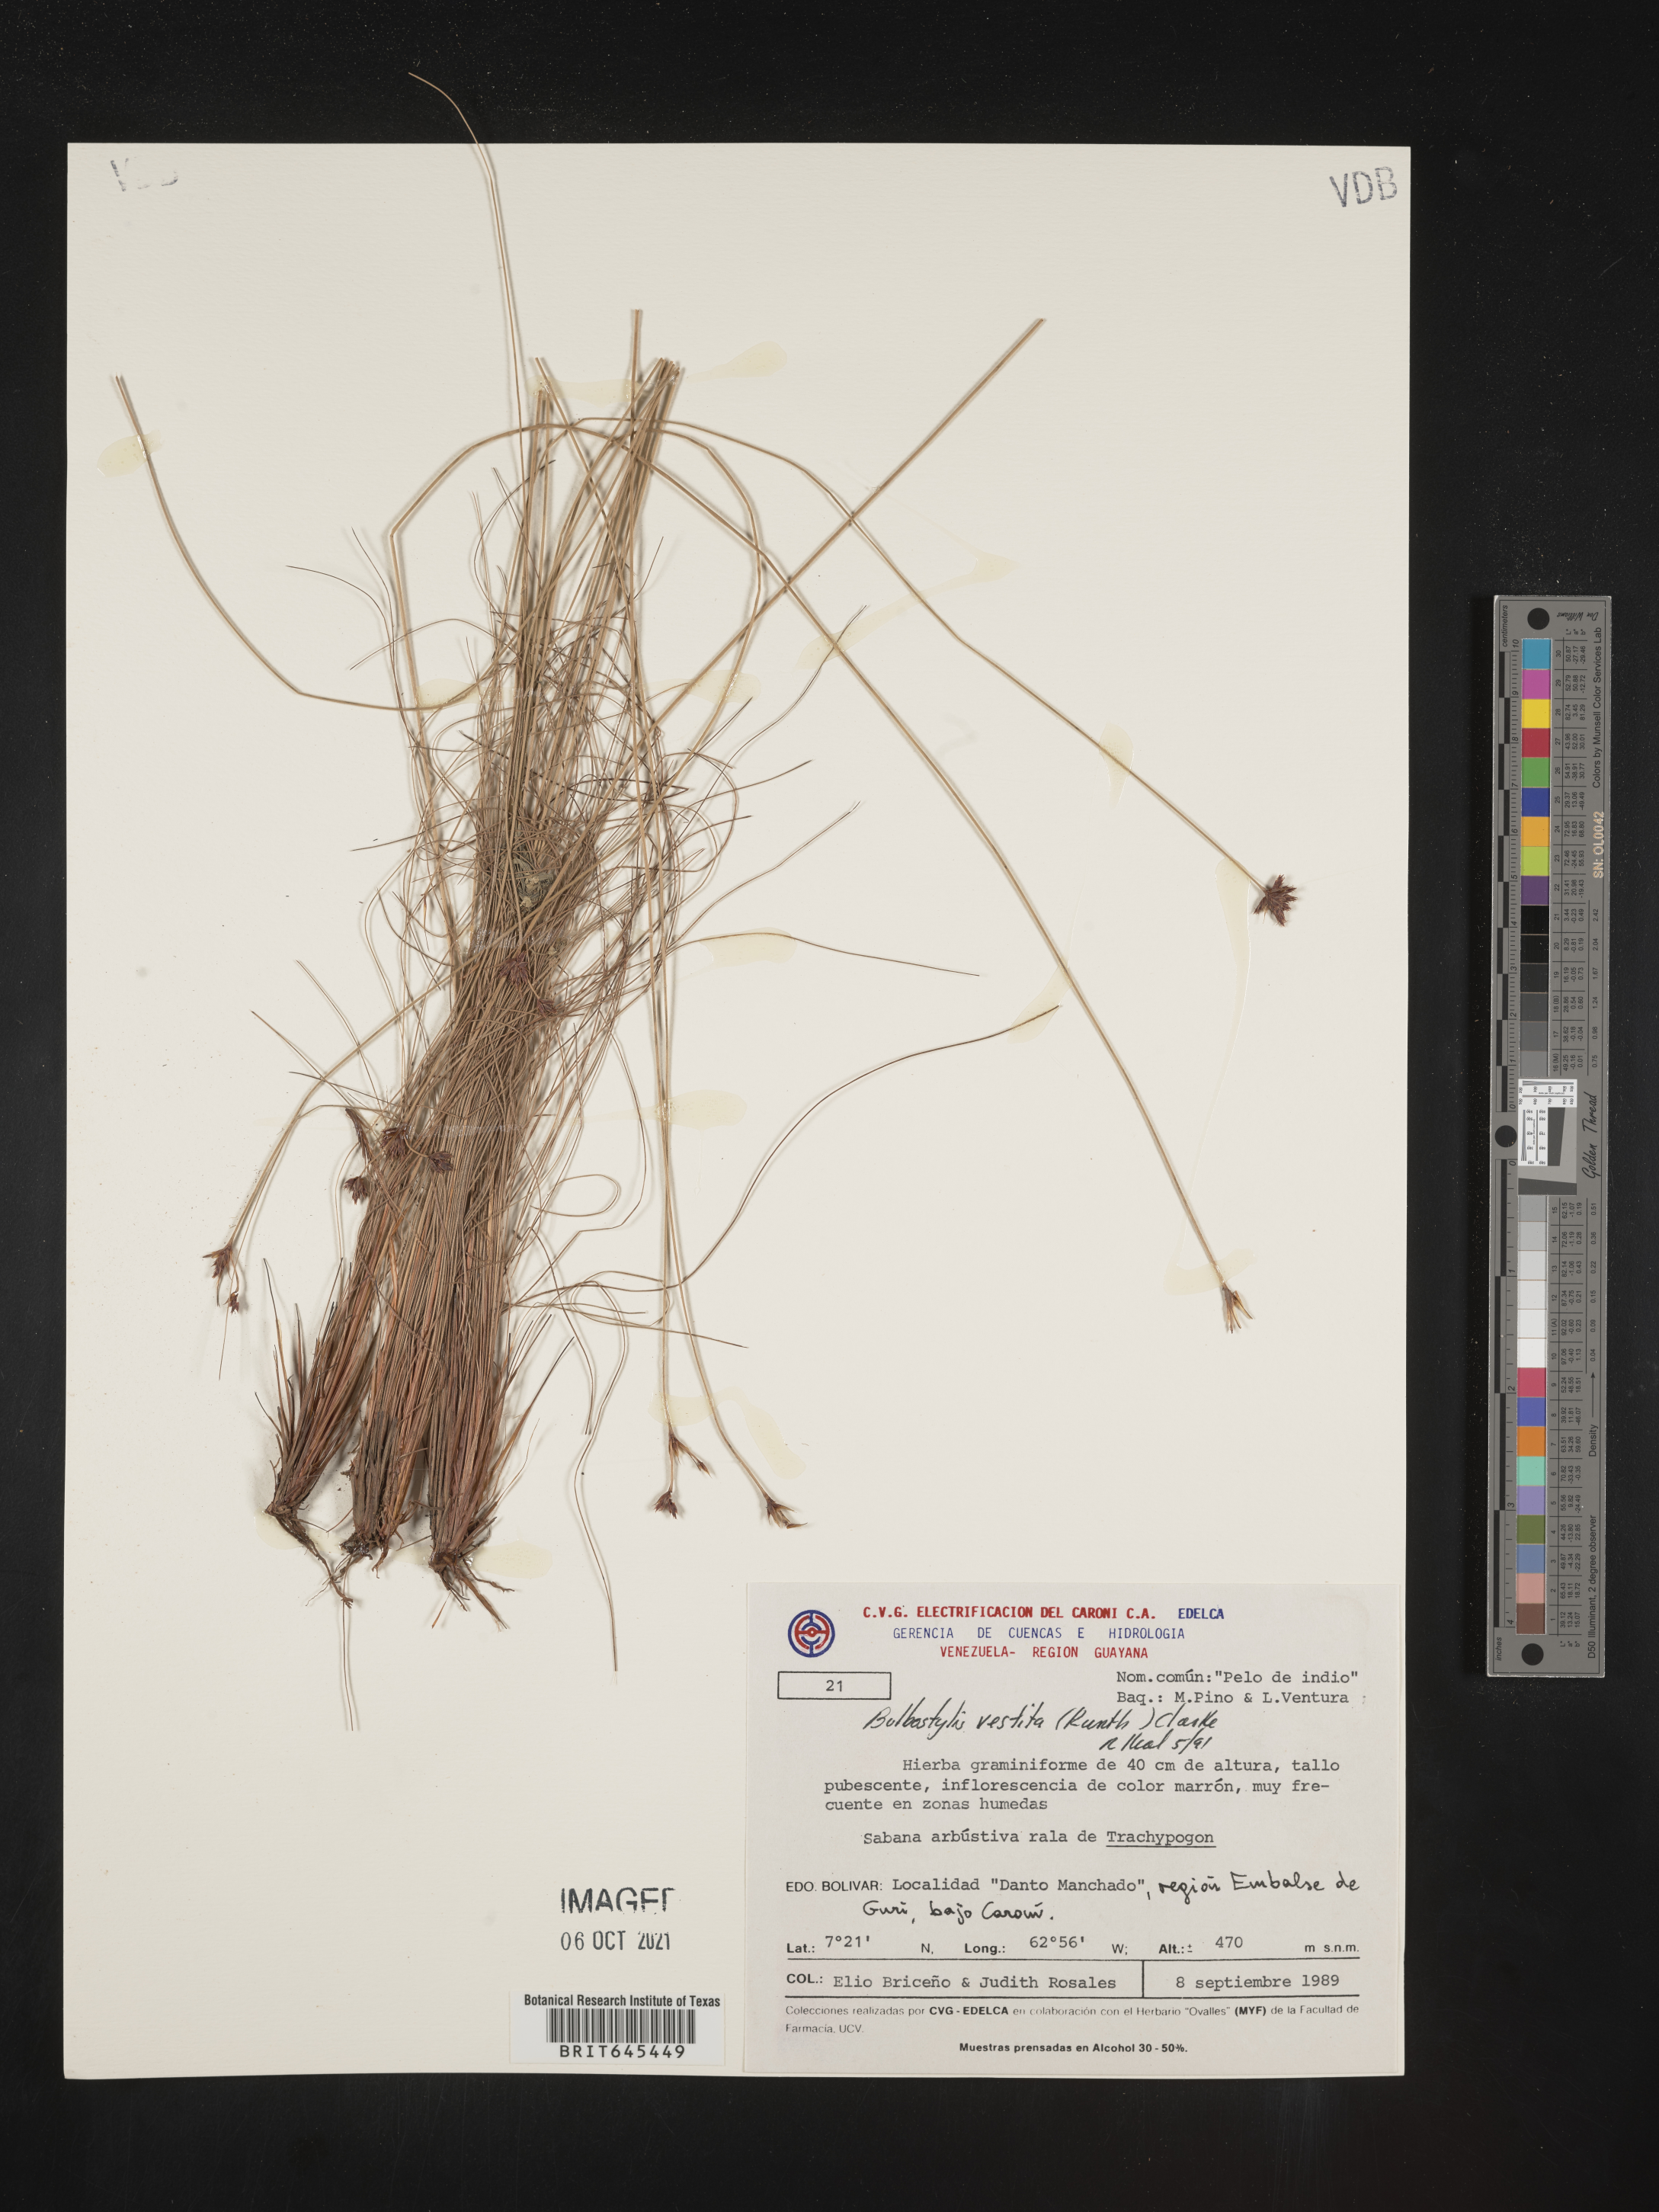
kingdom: Plantae
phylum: Tracheophyta
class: Liliopsida
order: Poales
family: Cyperaceae
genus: Bulbostylis
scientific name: Bulbostylis vestita
